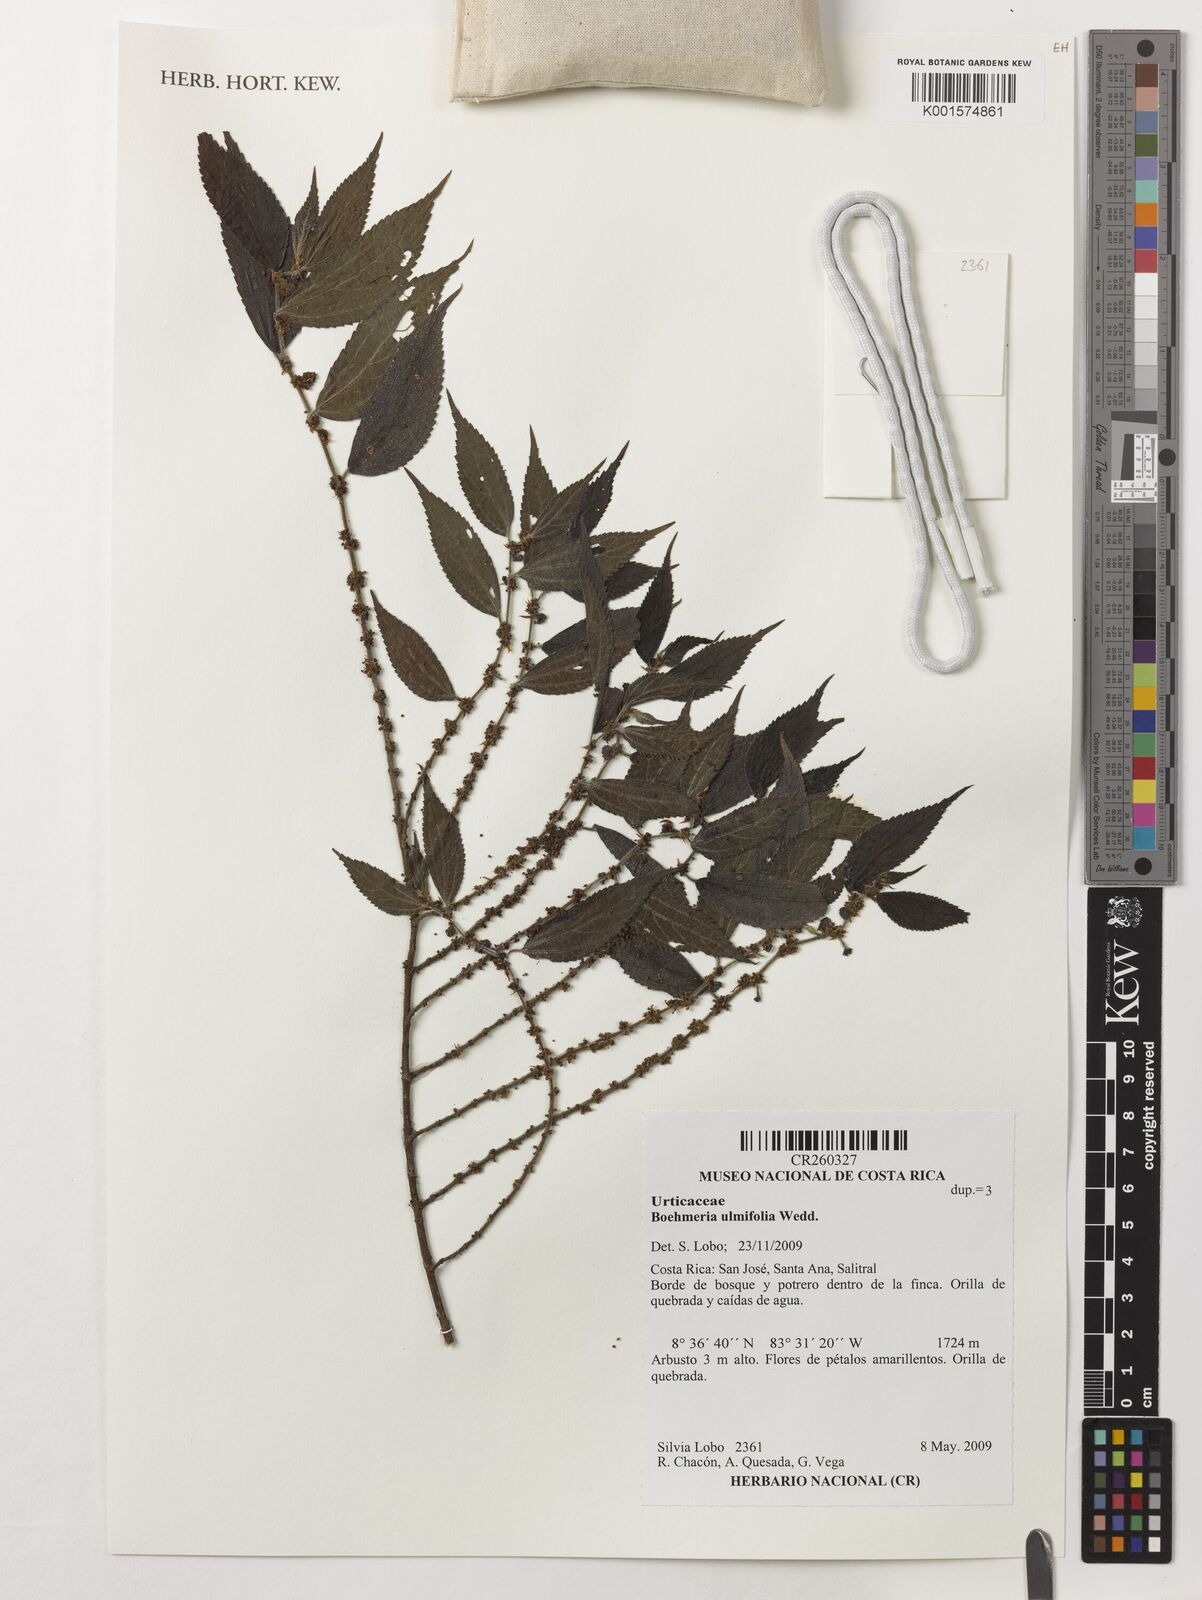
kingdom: Plantae
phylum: Tracheophyta
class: Magnoliopsida
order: Rosales
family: Urticaceae
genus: Boehmeria
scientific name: Boehmeria ulmifolia
